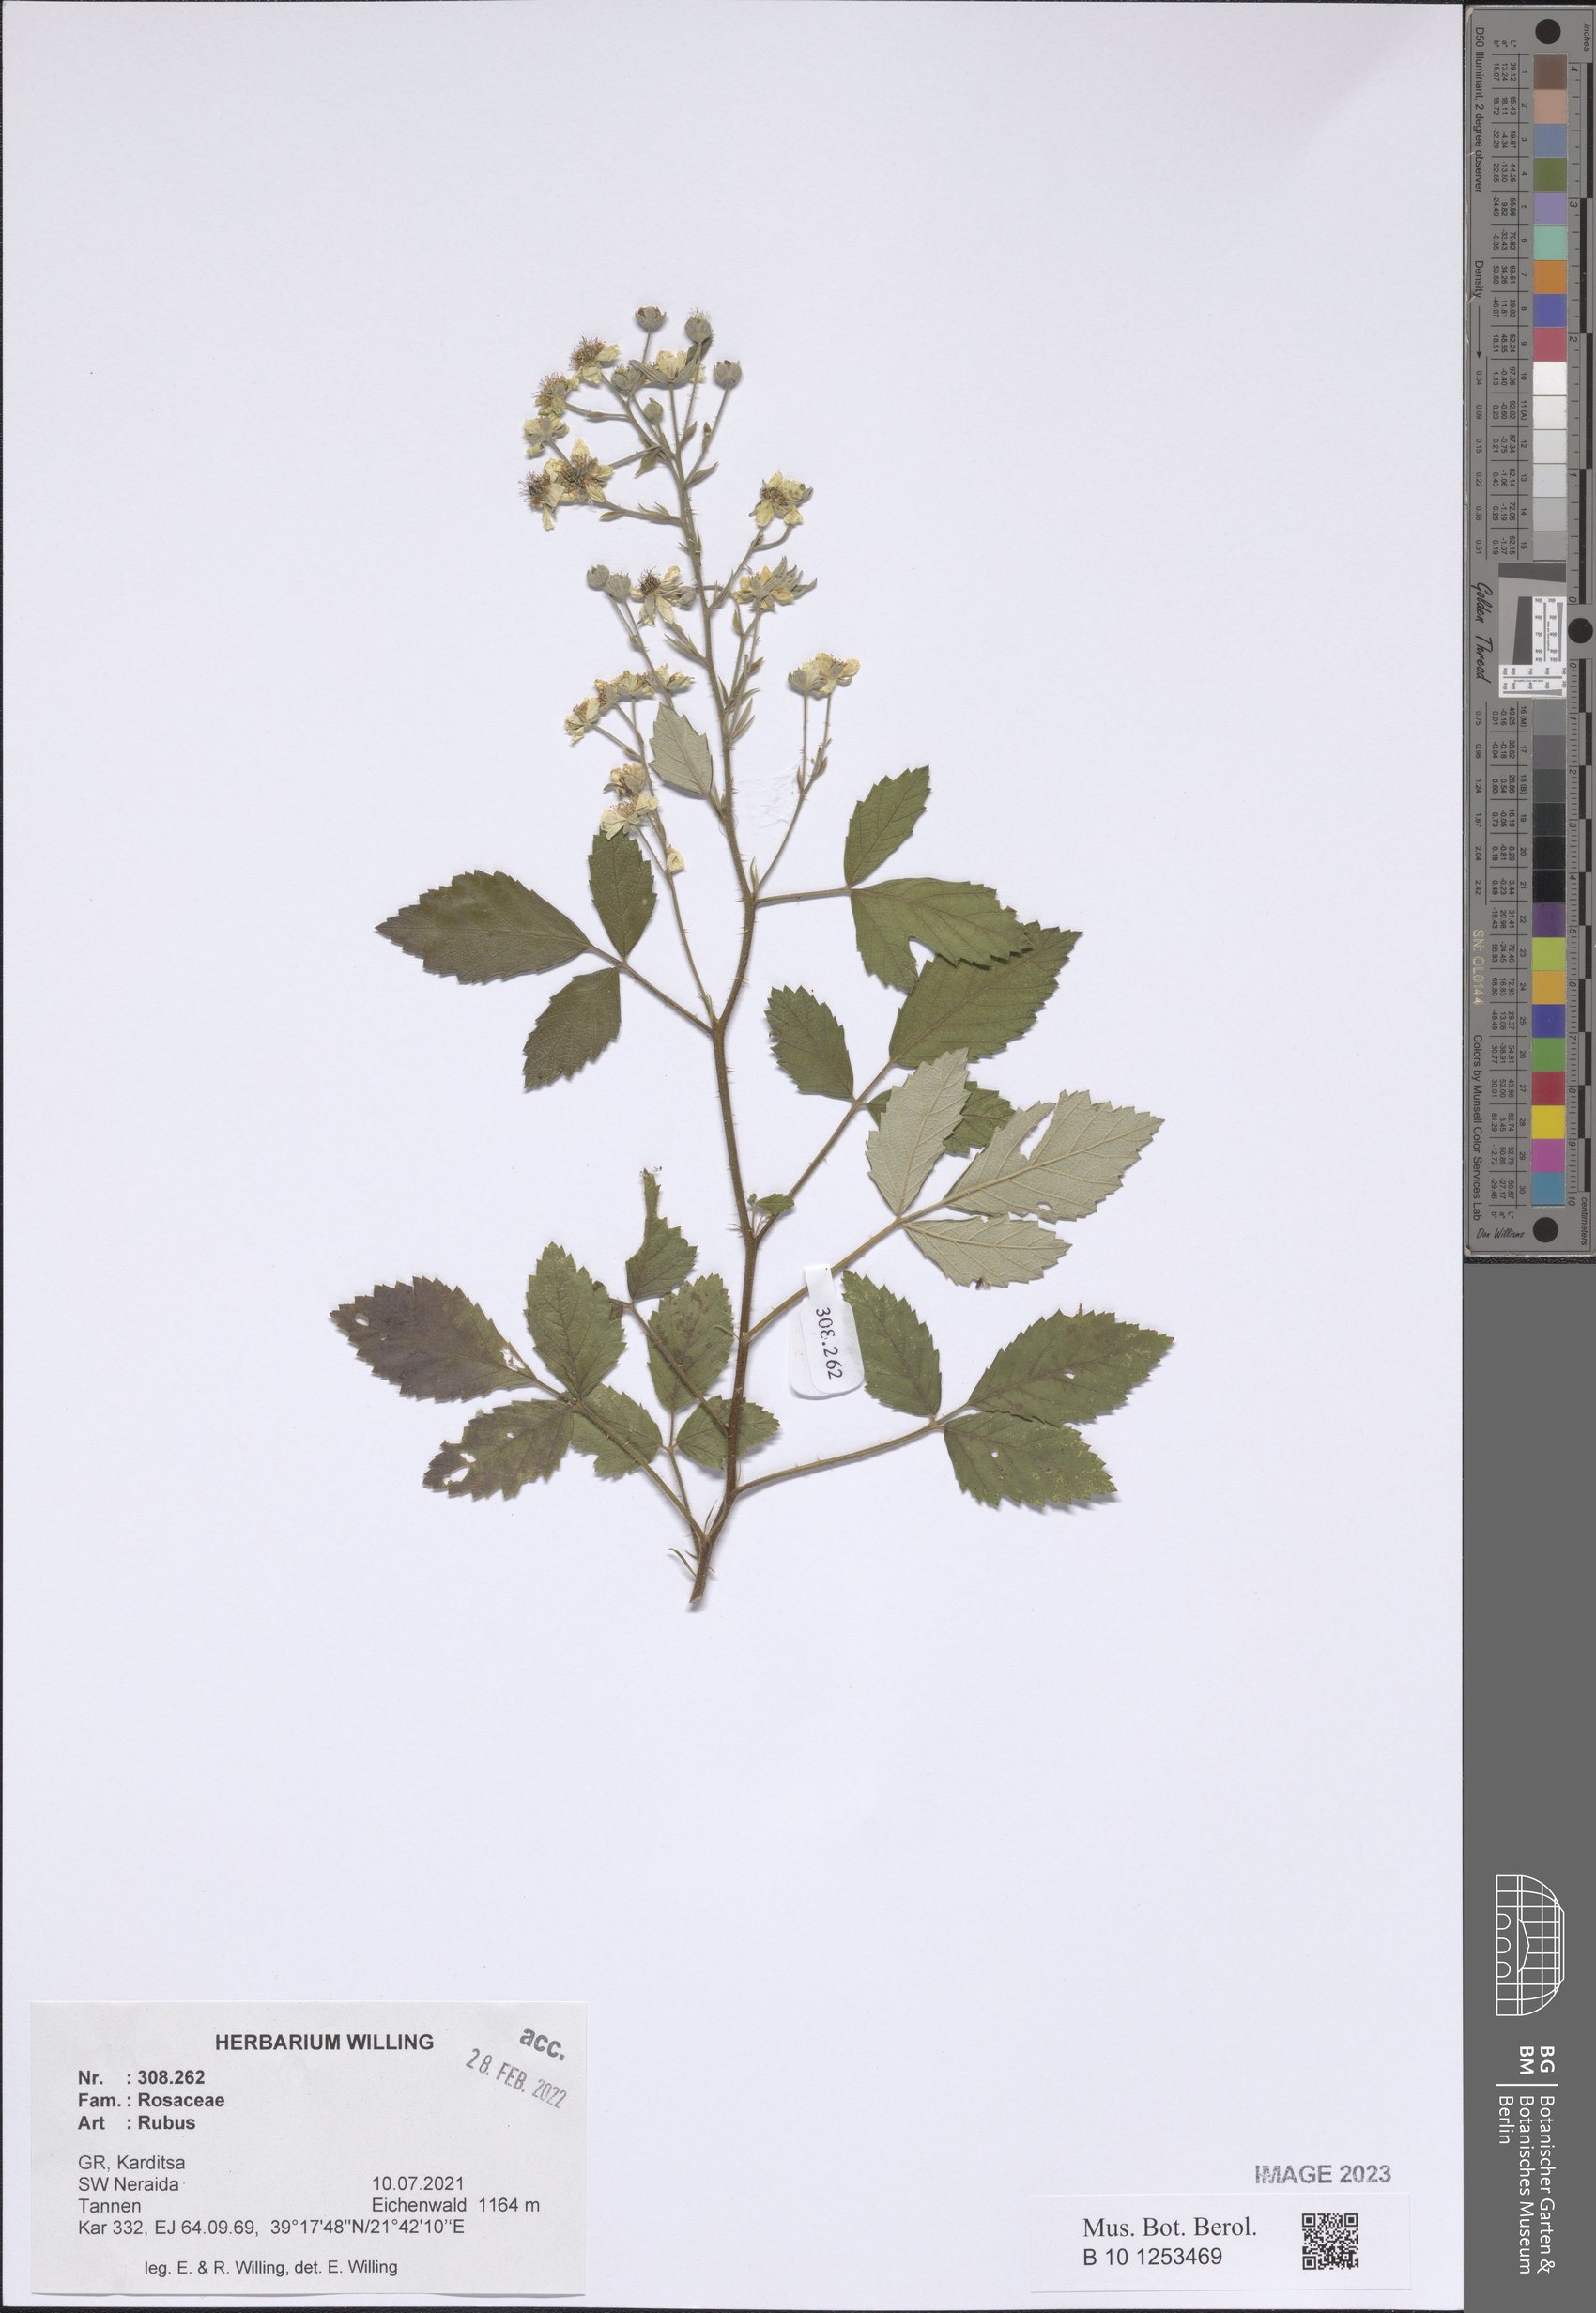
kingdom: Plantae
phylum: Tracheophyta
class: Magnoliopsida
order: Rosales
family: Rosaceae
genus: Rubus
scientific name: Rubus
